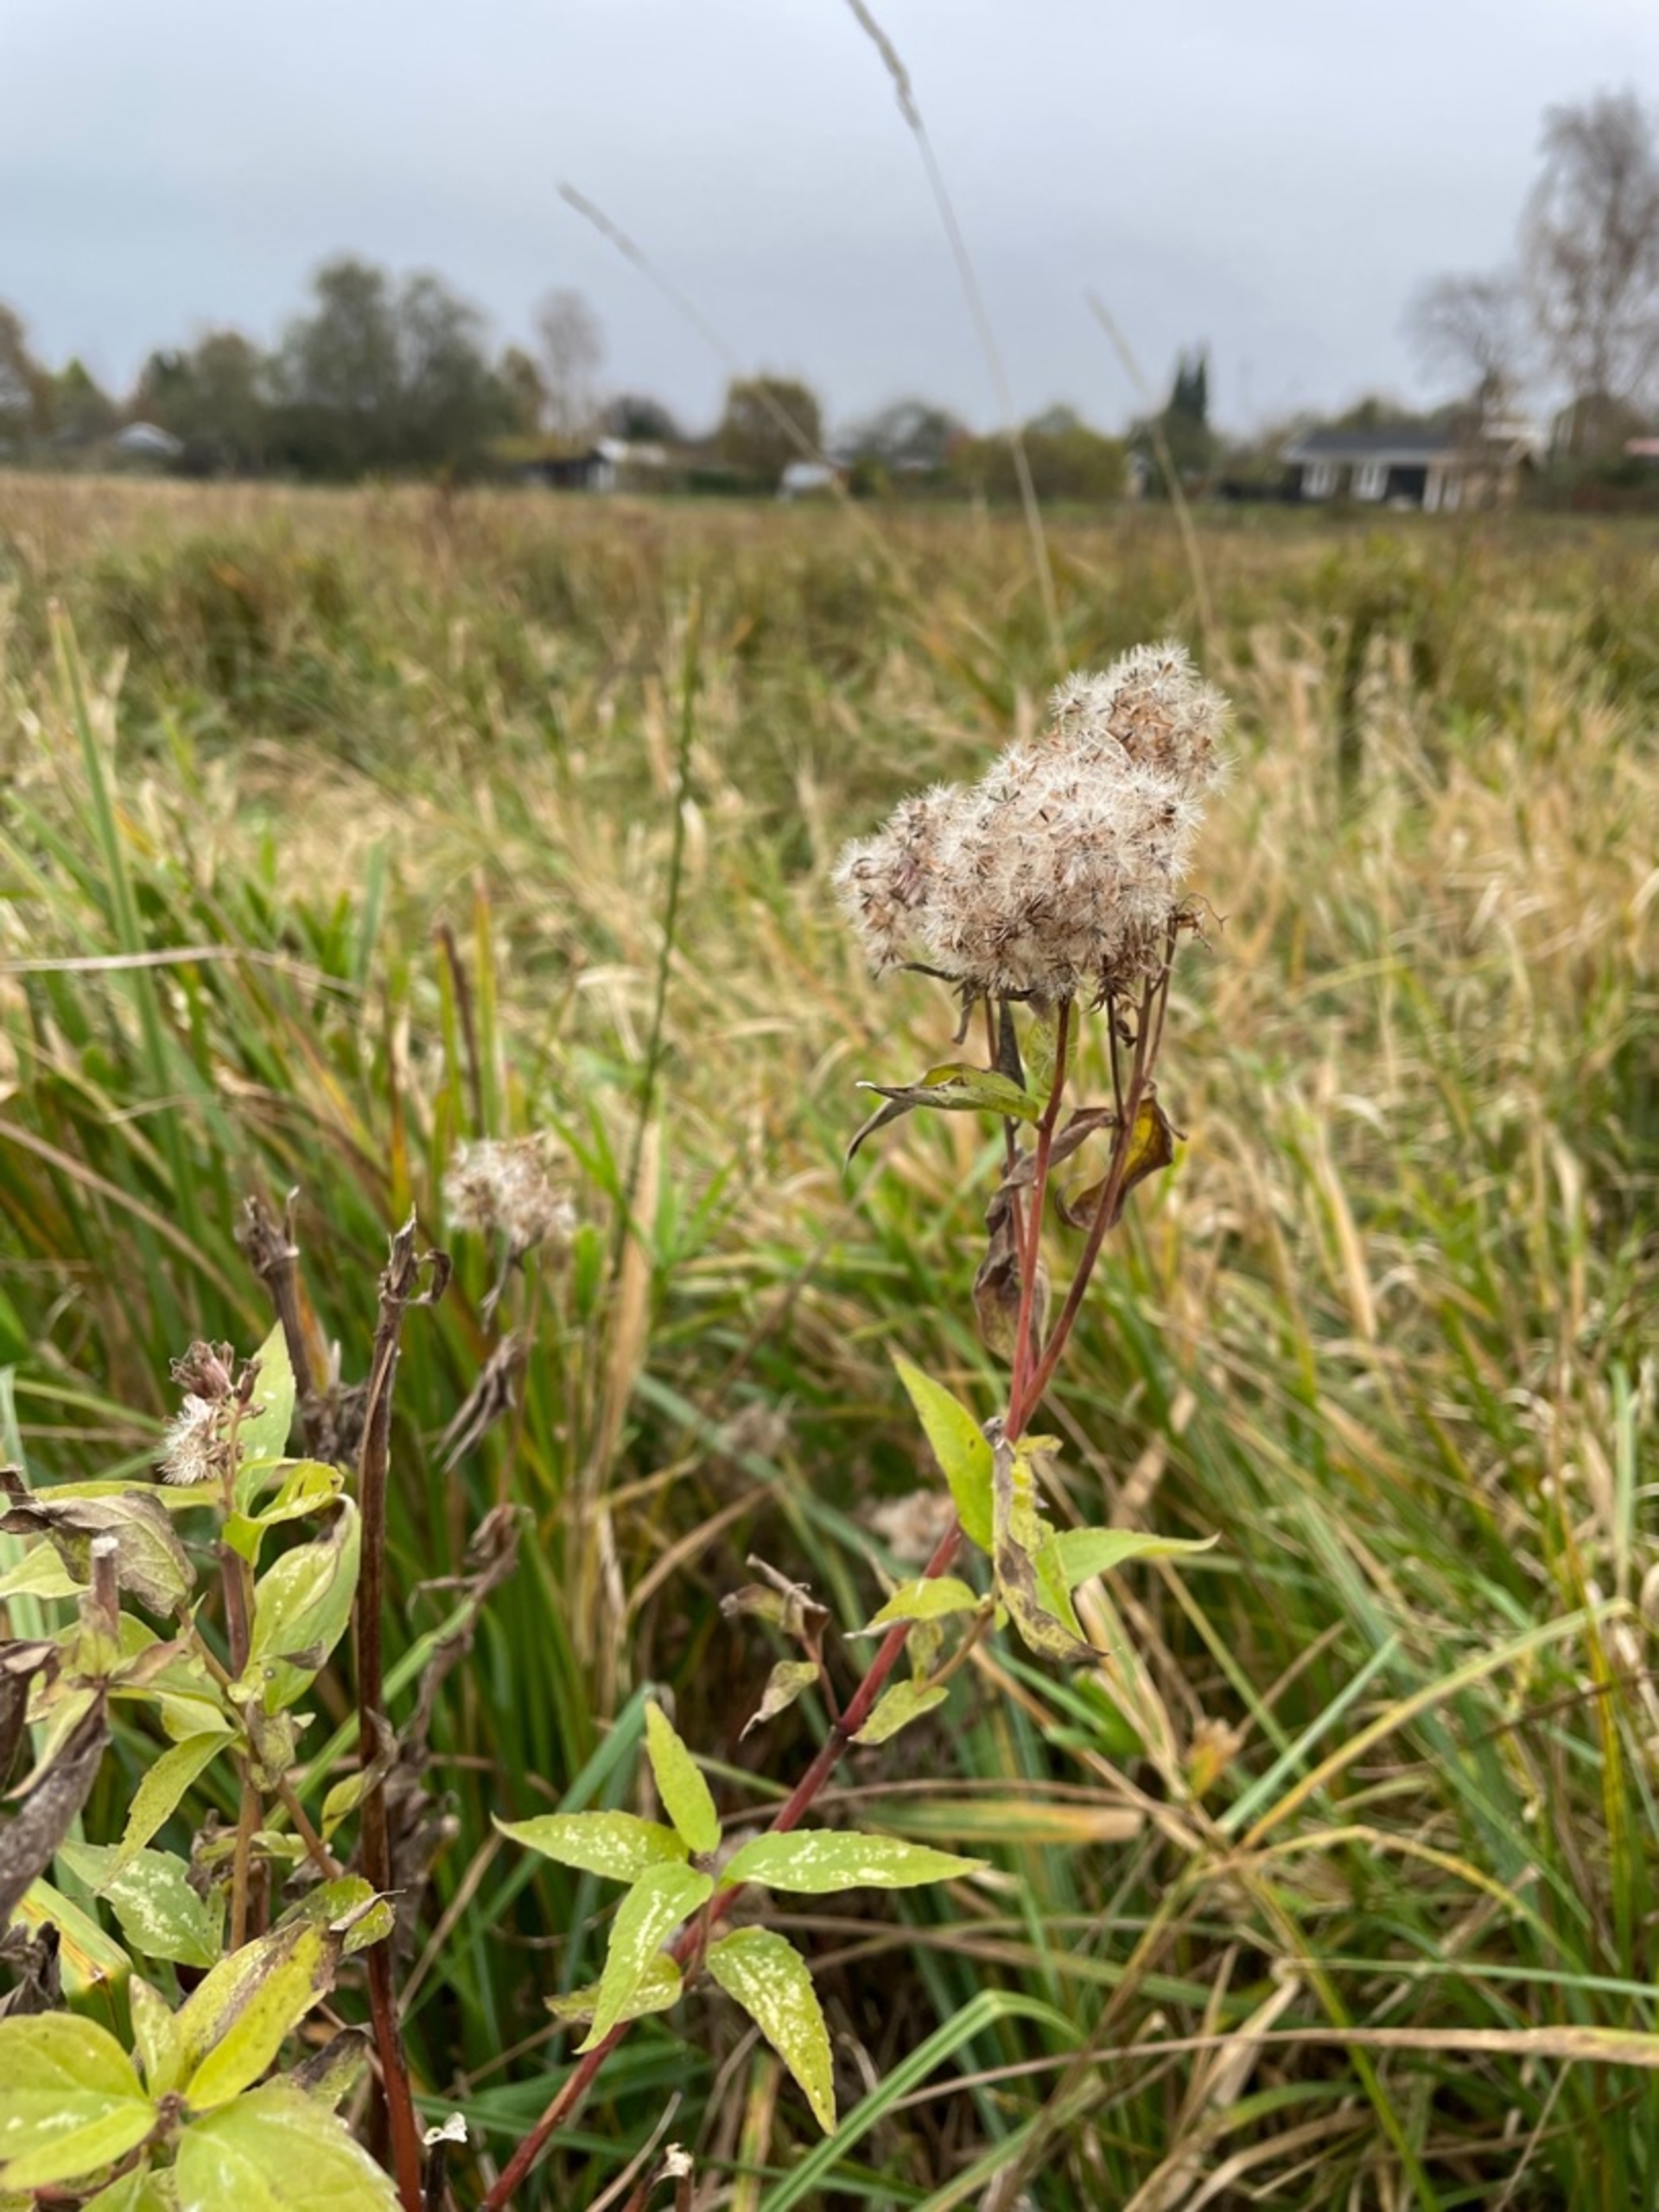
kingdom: Plantae
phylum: Tracheophyta
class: Magnoliopsida
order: Asterales
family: Asteraceae
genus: Eupatorium
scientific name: Eupatorium cannabinum
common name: Hjortetrøst
